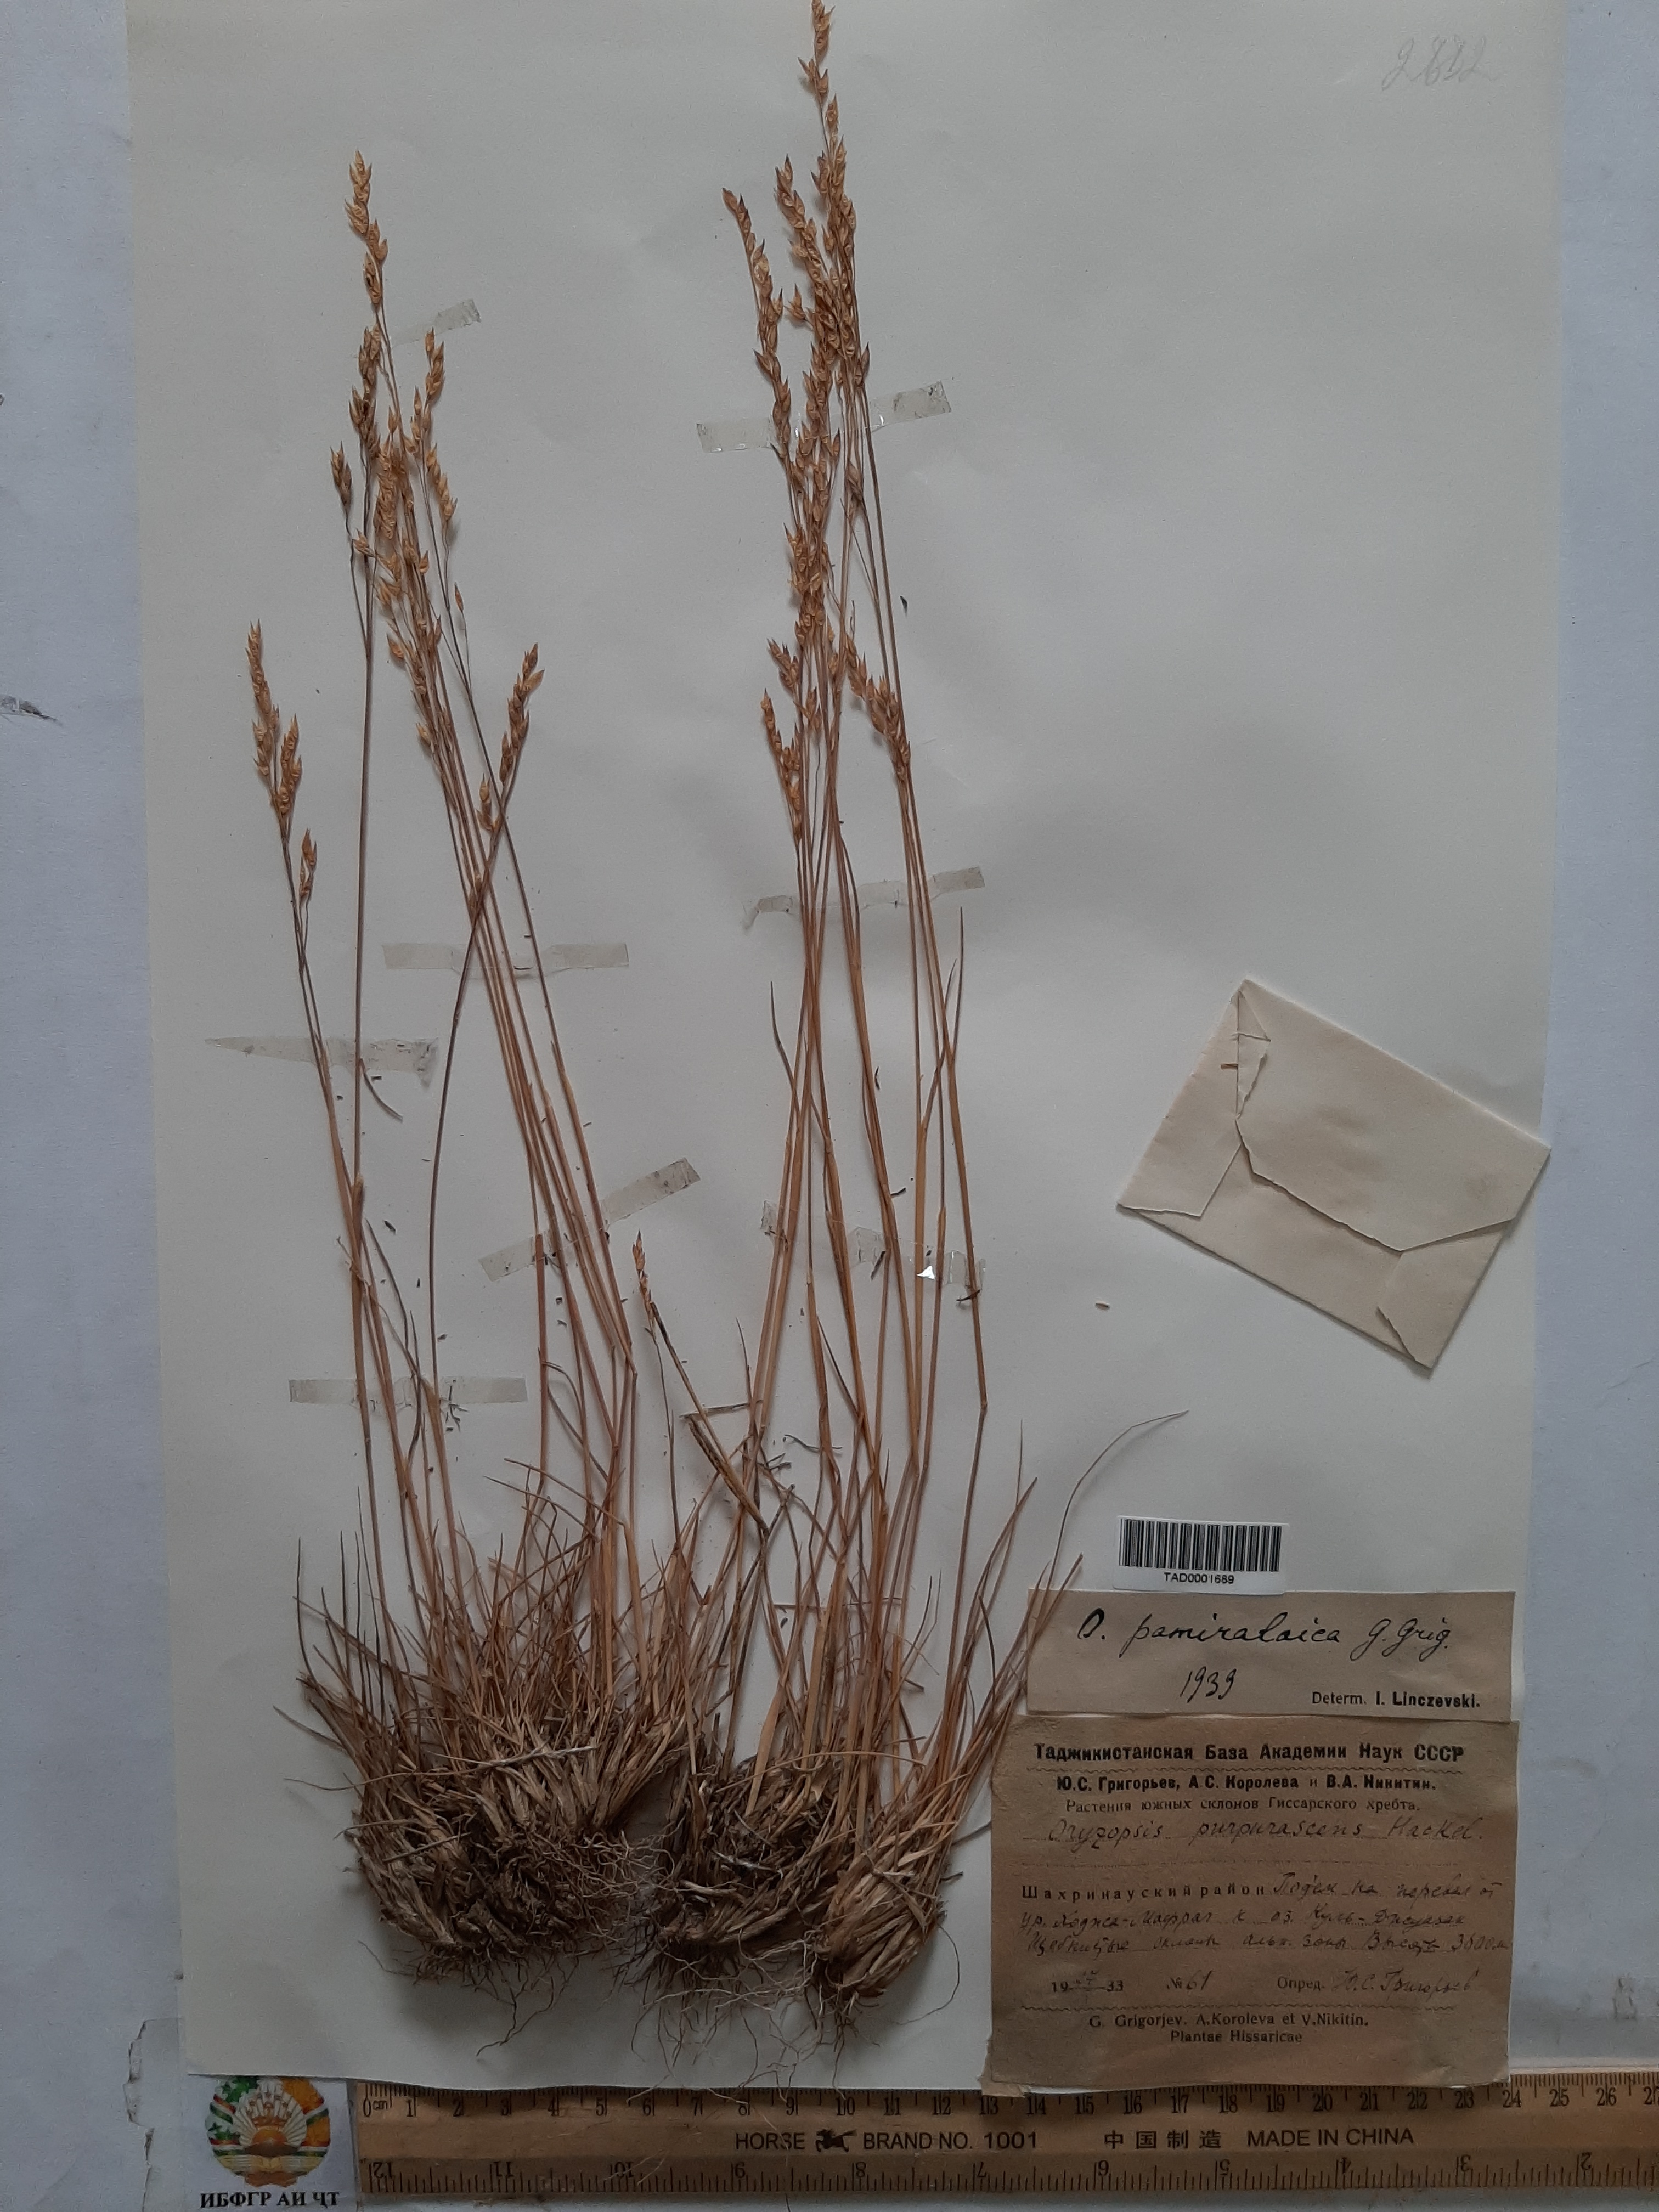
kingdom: Plantae
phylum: Tracheophyta
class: Liliopsida
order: Poales
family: Poaceae
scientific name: Poaceae
